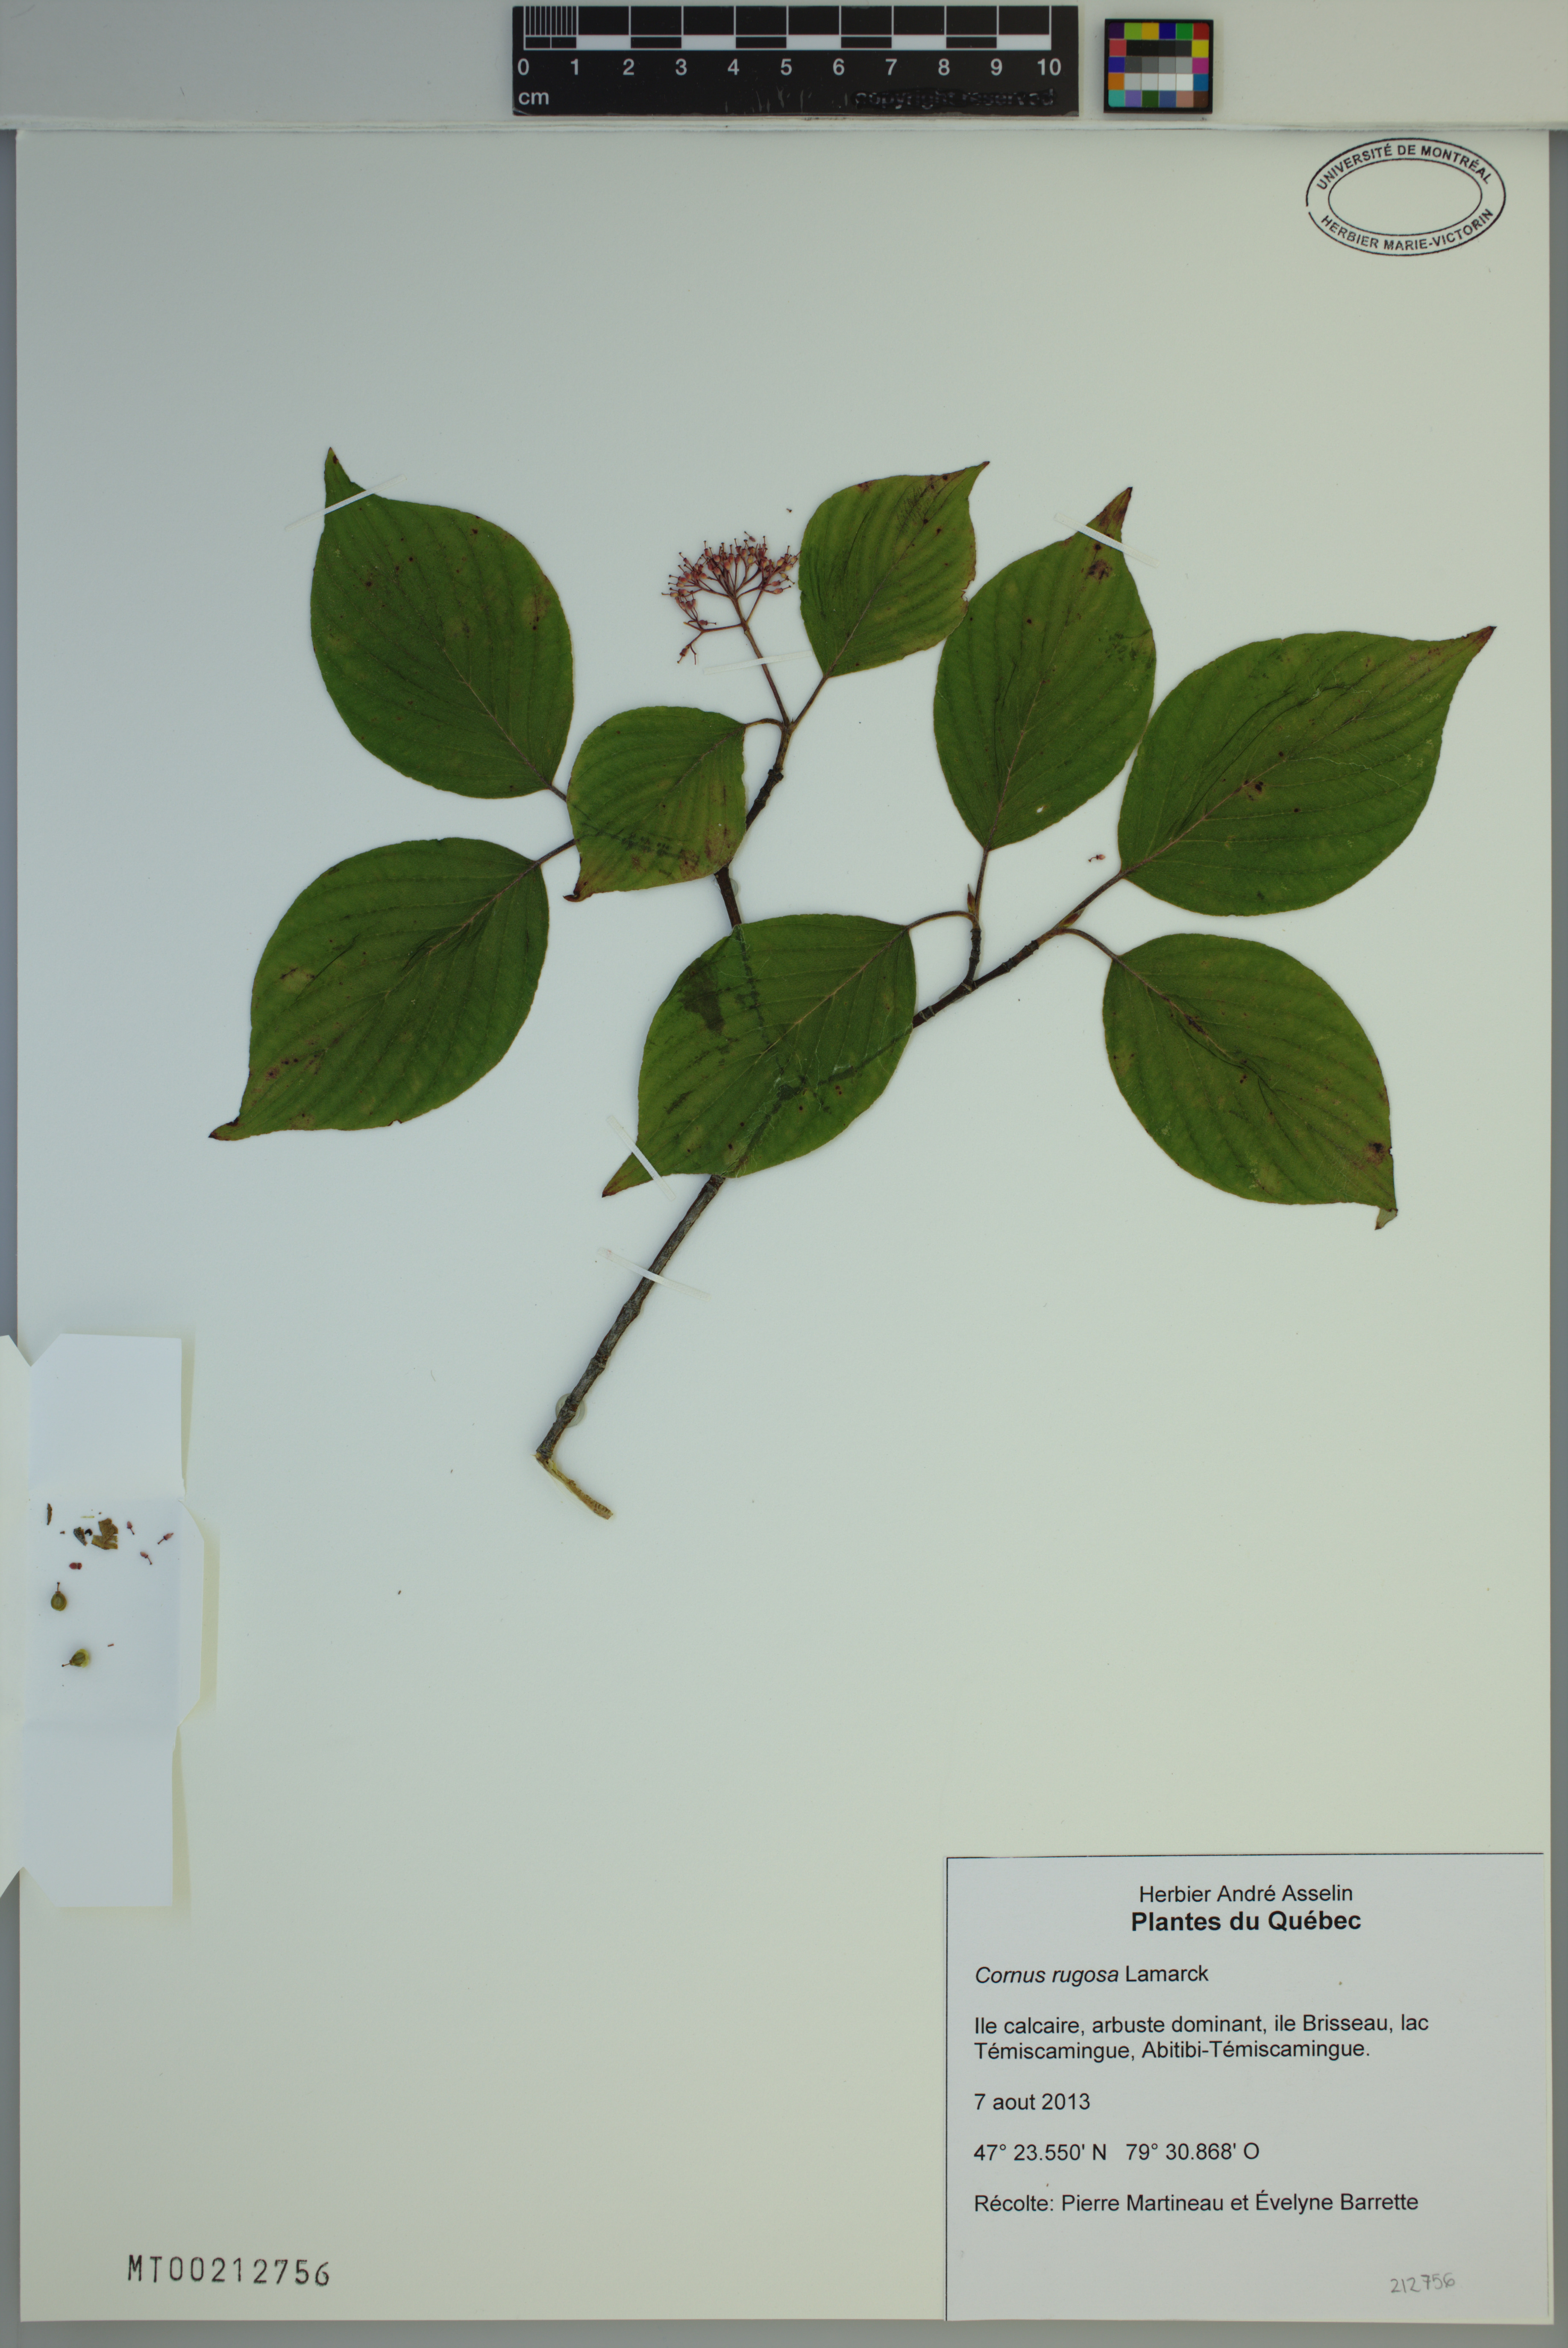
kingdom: Plantae
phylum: Tracheophyta
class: Magnoliopsida
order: Cornales
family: Cornaceae
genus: Cornus
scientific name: Cornus rugosa
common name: Round-leaf dogwood
